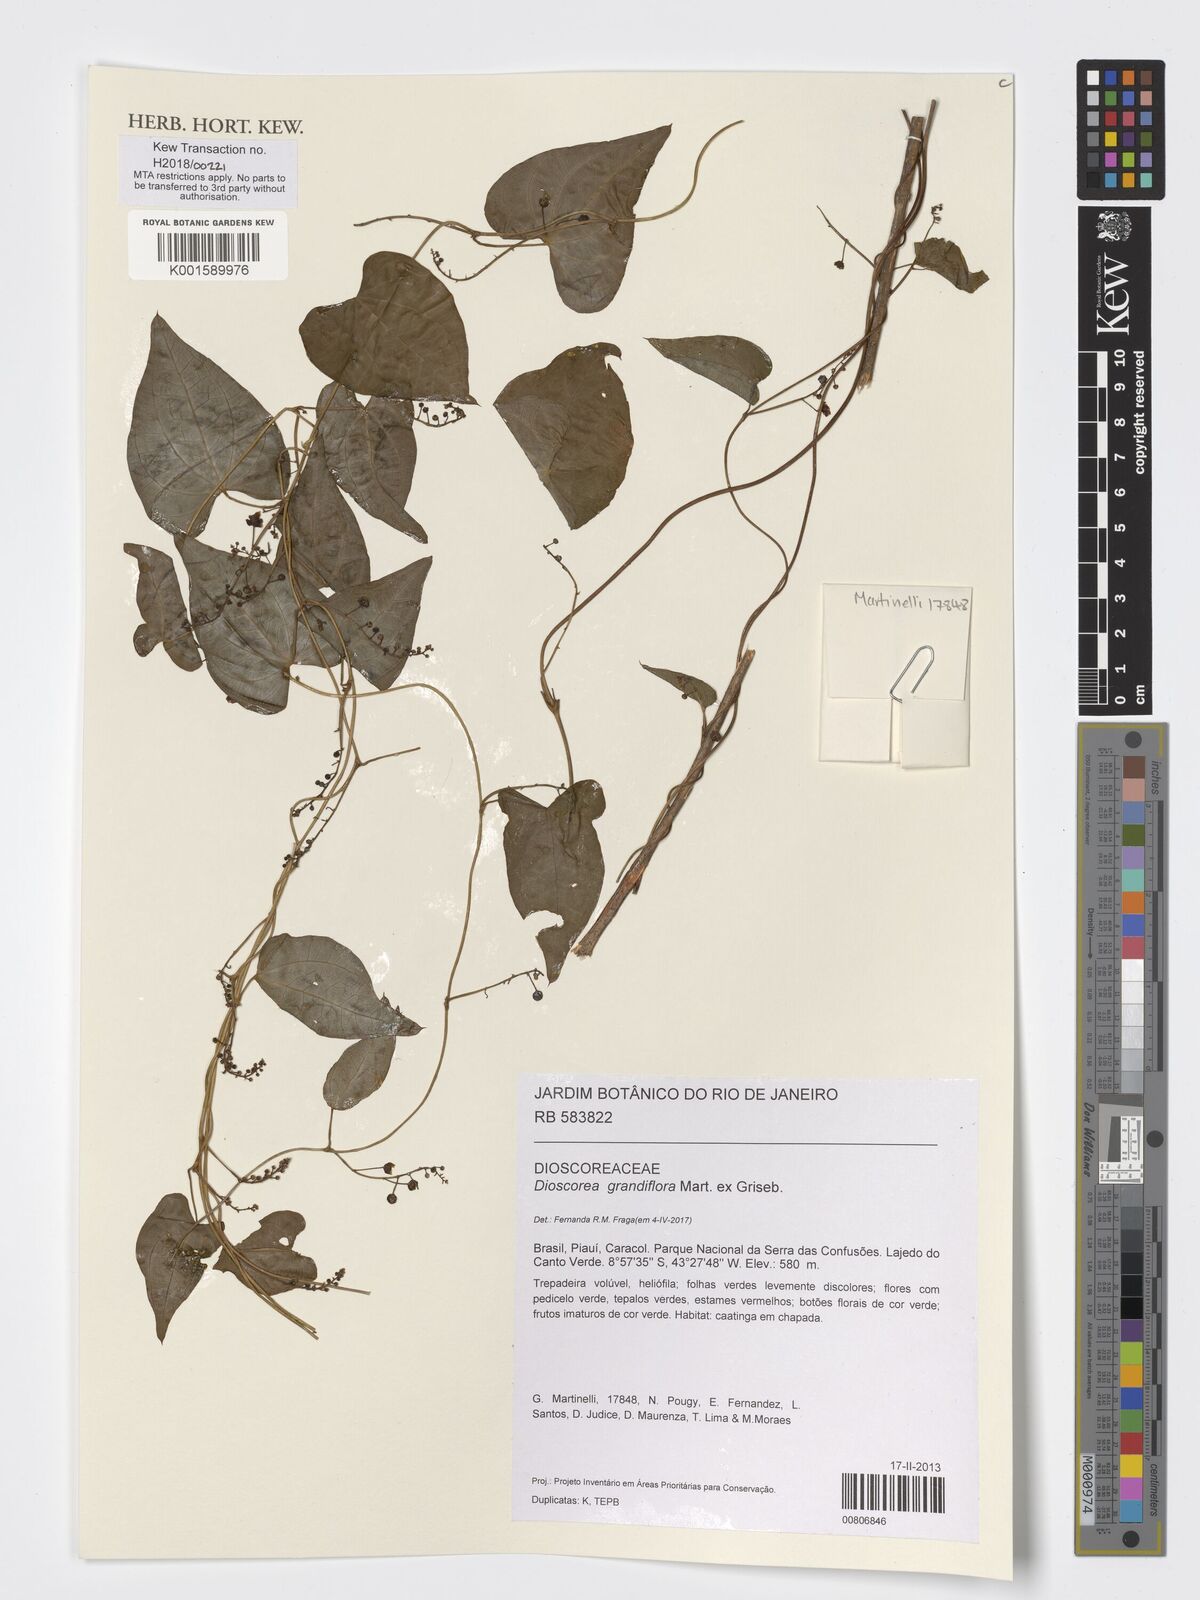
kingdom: Plantae
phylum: Tracheophyta
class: Liliopsida
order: Dioscoreales
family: Dioscoreaceae
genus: Dioscorea
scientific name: Dioscorea grandiflora
